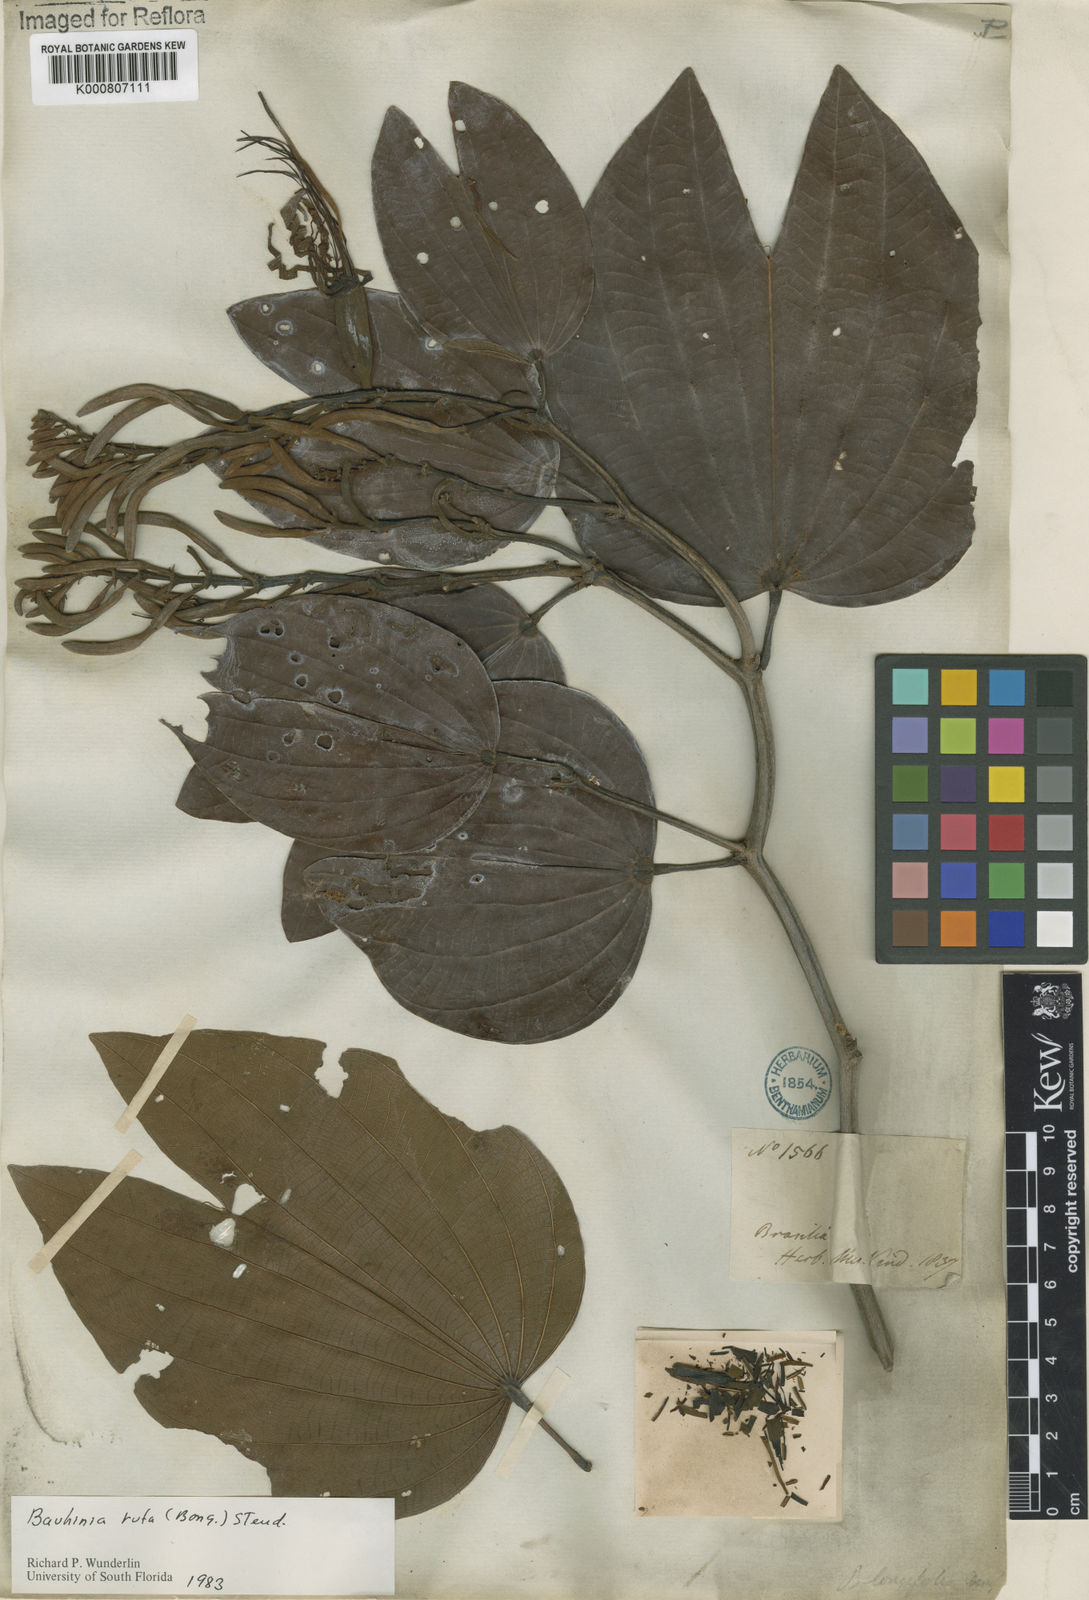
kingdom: Plantae
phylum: Tracheophyta
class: Magnoliopsida
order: Fabales
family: Fabaceae
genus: Bauhinia
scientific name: Bauhinia rufa
